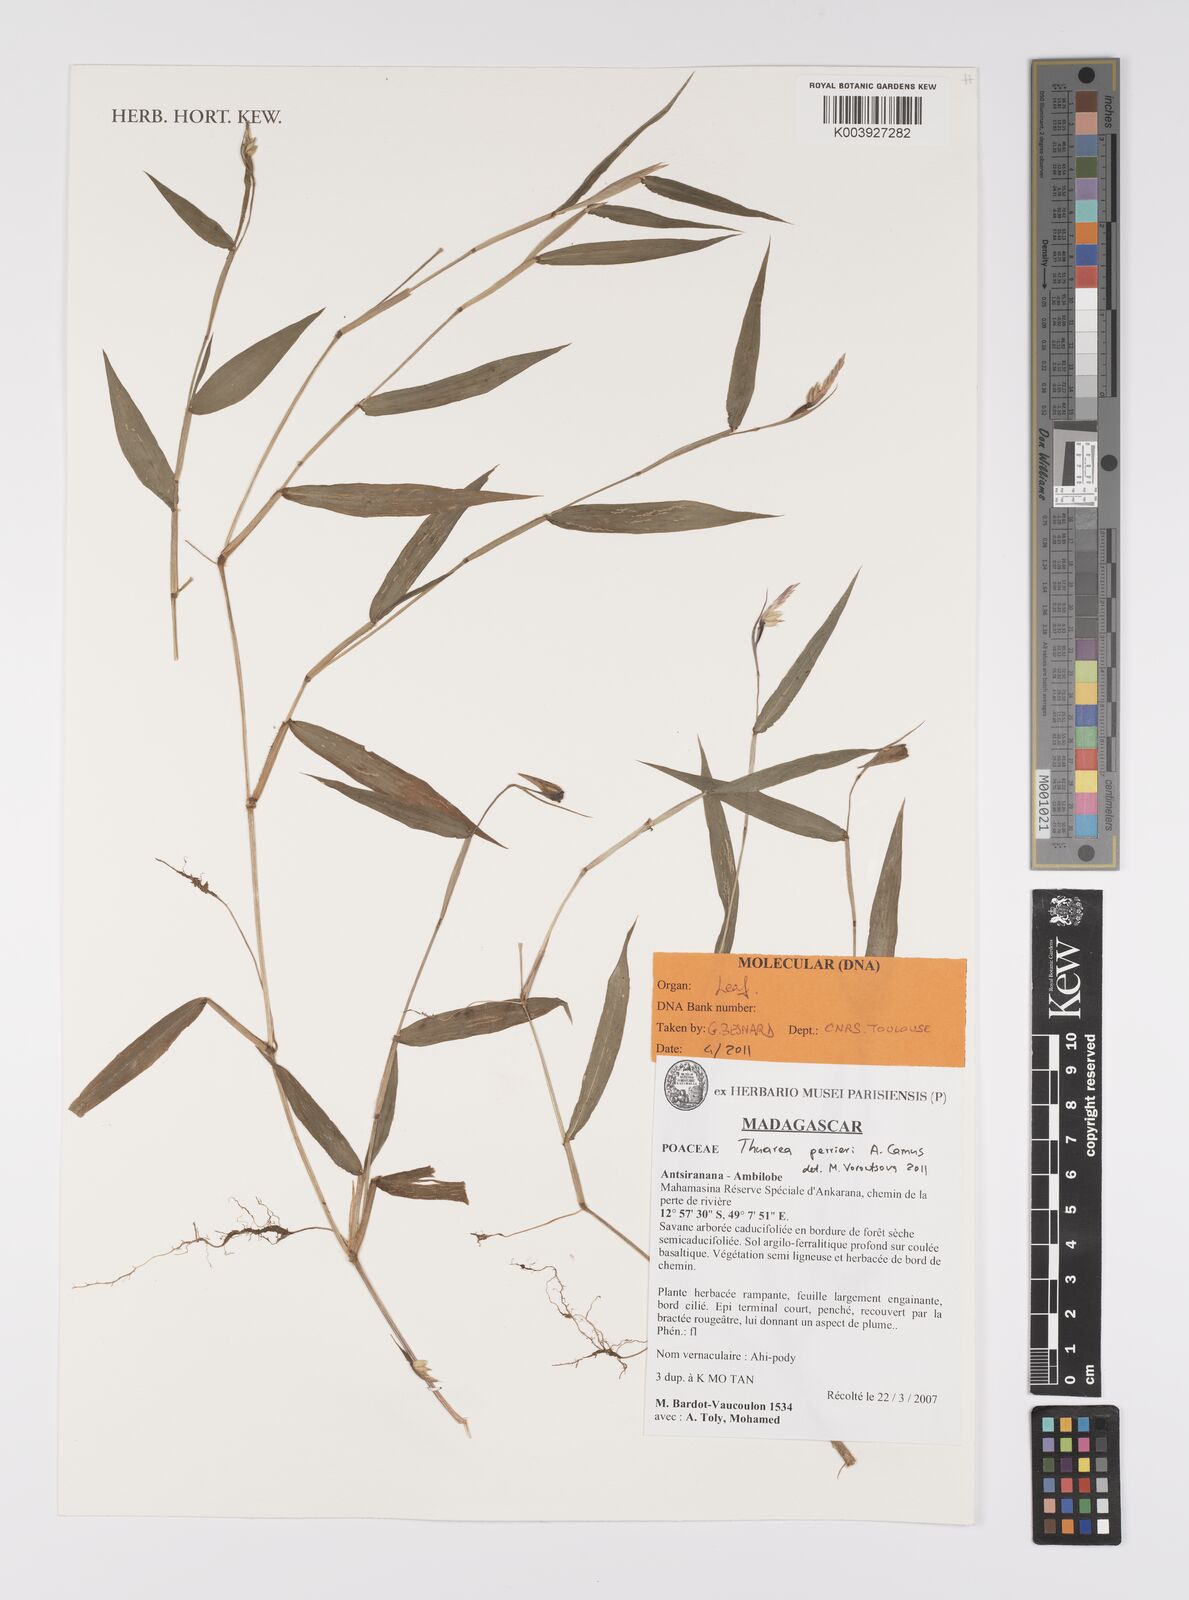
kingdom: Plantae
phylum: Tracheophyta
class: Liliopsida
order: Poales
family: Poaceae
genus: Thuarea
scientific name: Thuarea perrieri
